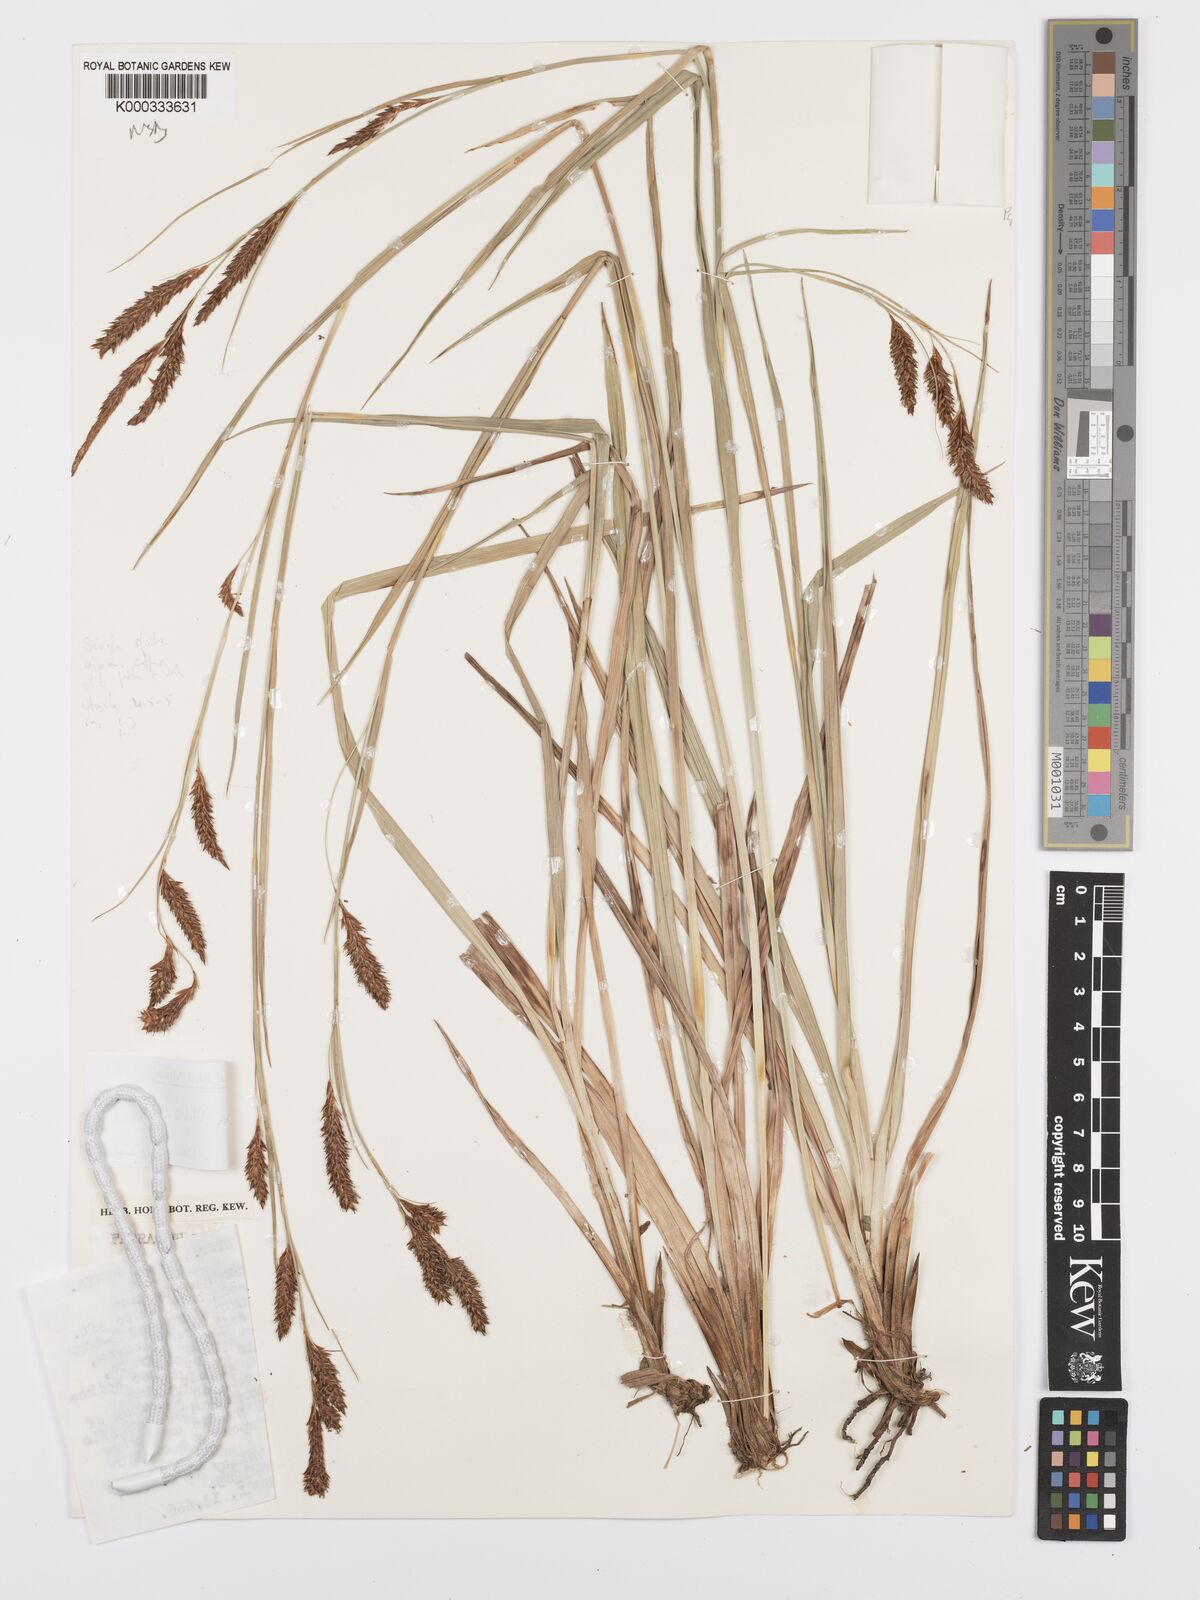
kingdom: Plantae
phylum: Tracheophyta
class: Liliopsida
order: Poales
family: Cyperaceae
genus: Carex
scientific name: Carex petitiana
